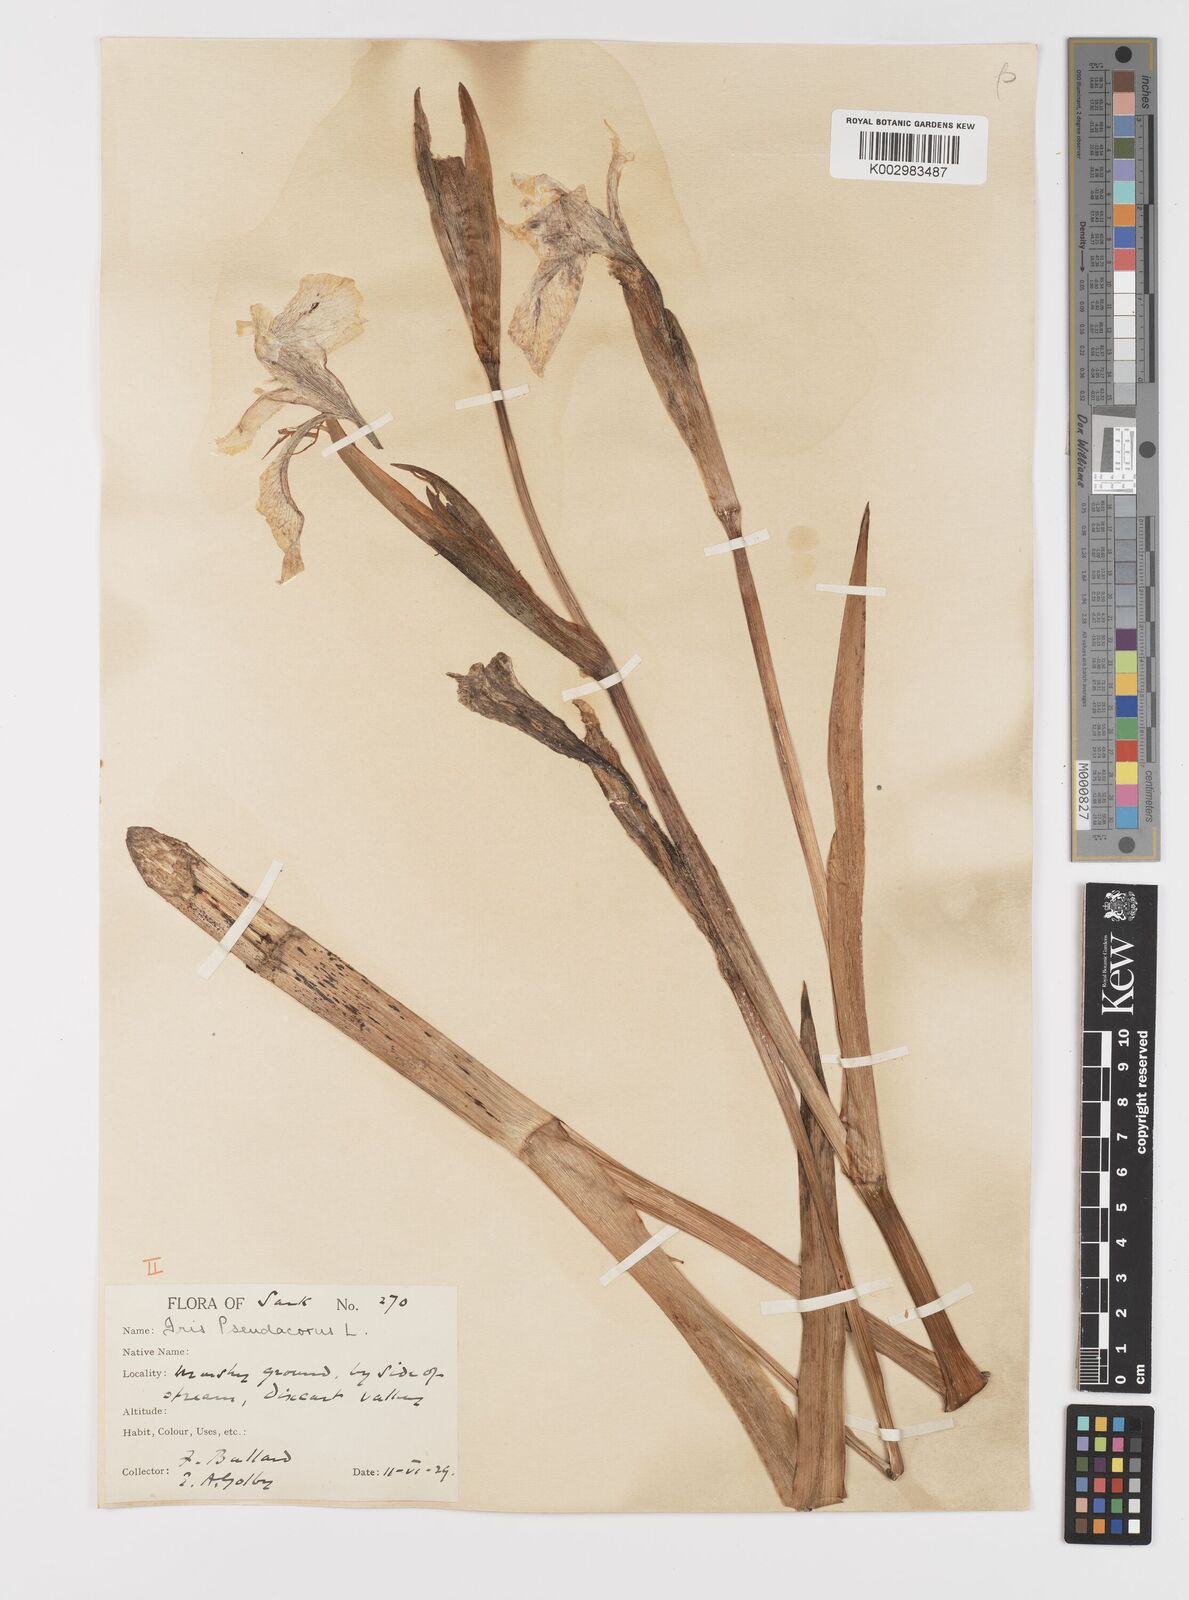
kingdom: Plantae
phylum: Tracheophyta
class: Liliopsida
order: Asparagales
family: Iridaceae
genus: Iris
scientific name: Iris pseudacorus
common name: Yellow flag
